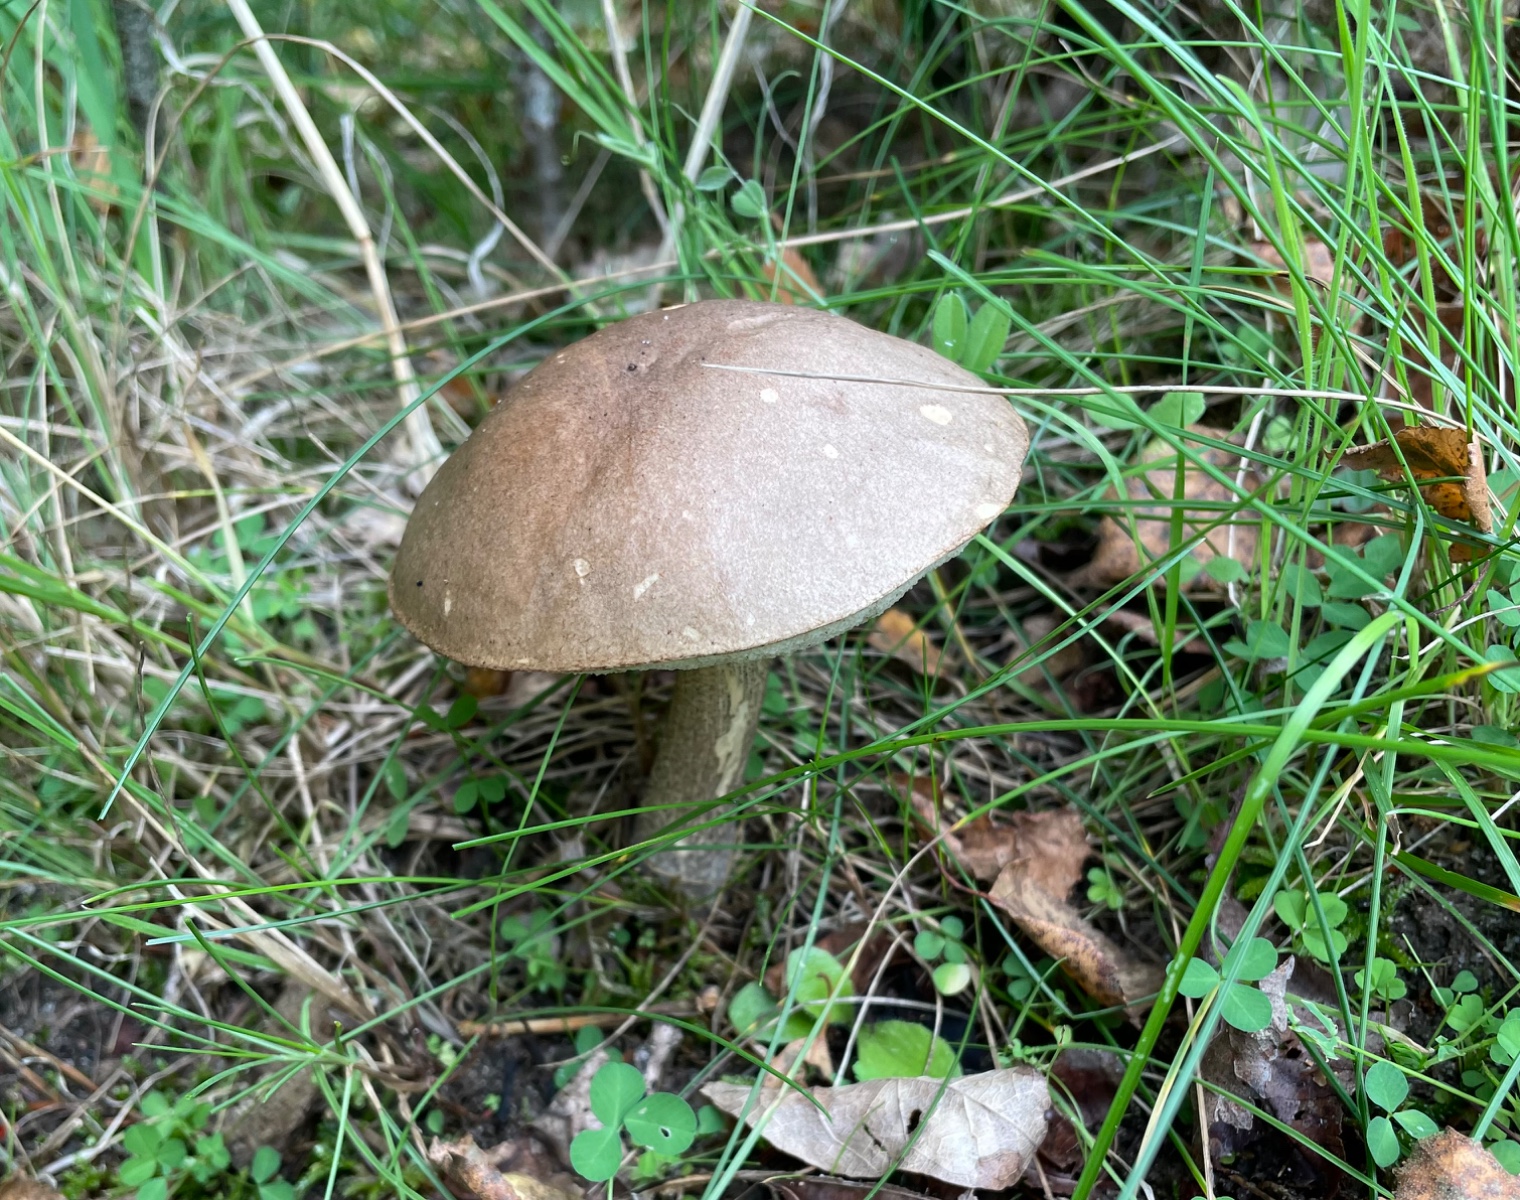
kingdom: Fungi
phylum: Basidiomycota
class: Agaricomycetes
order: Boletales
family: Boletaceae
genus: Leccinum
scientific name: Leccinum scabrum
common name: brun skælrørhat
